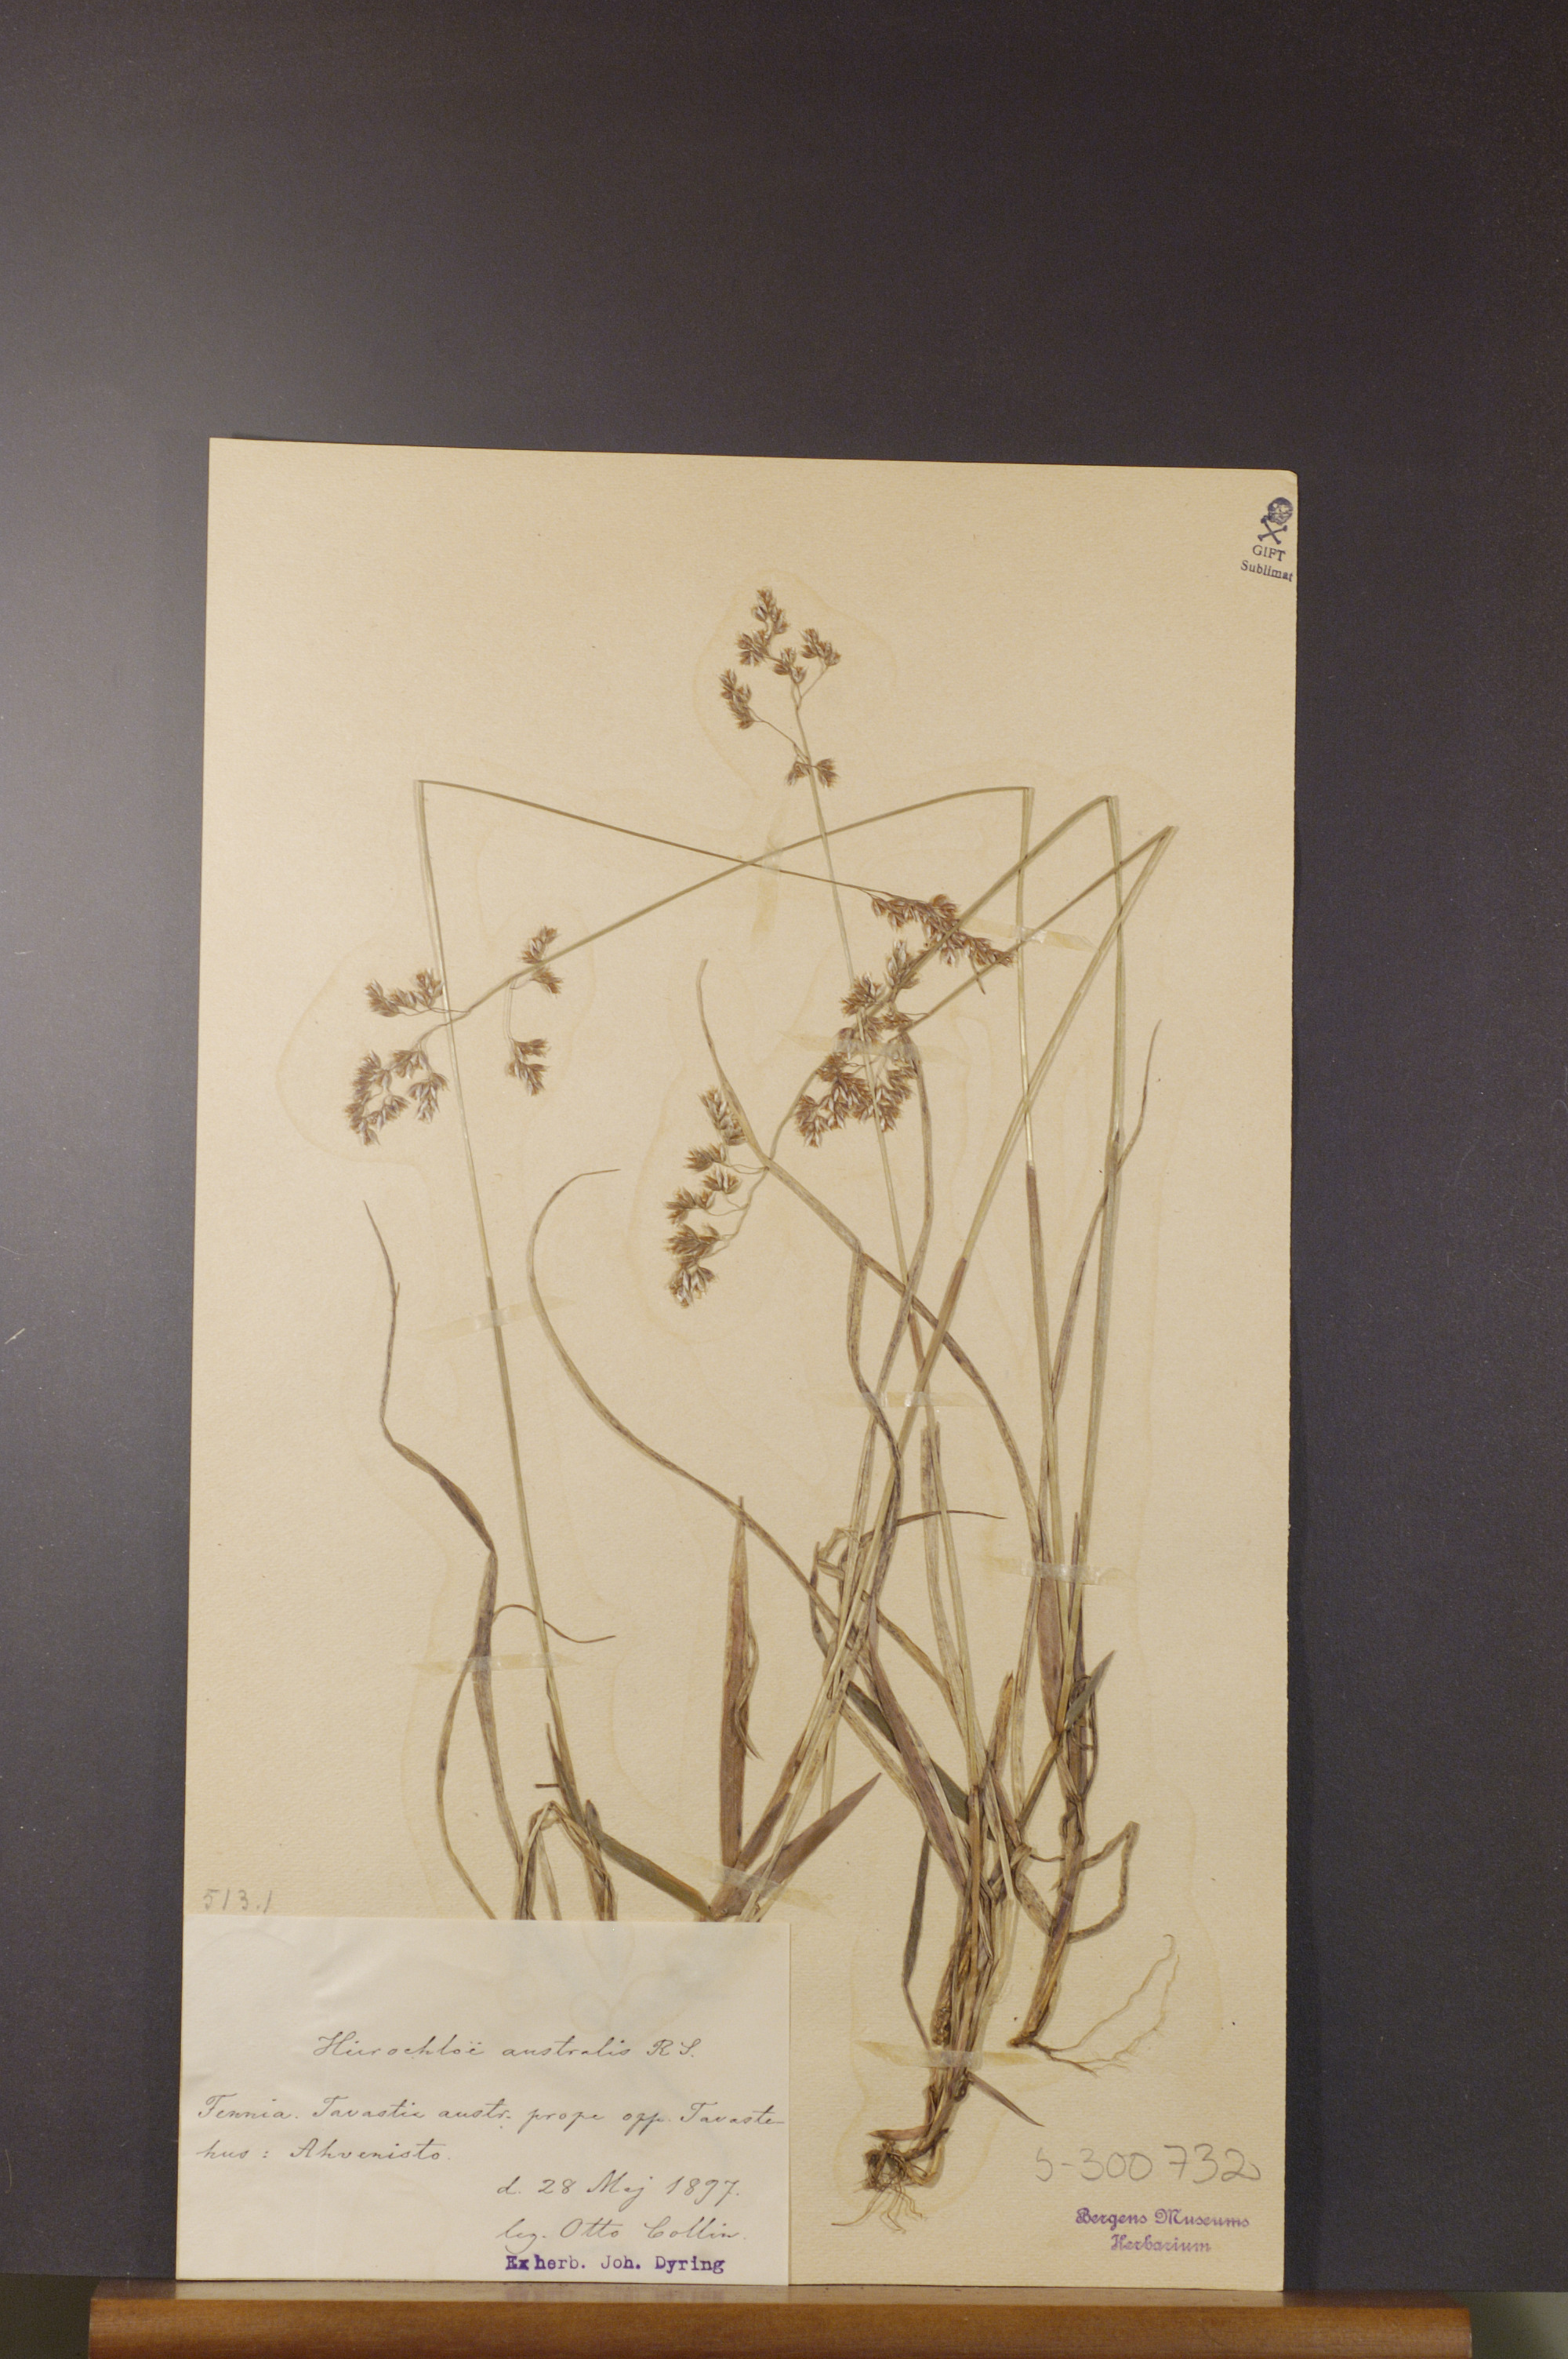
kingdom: Plantae
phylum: Tracheophyta
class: Liliopsida
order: Poales
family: Poaceae
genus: Anthoxanthum
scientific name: Anthoxanthum australe
